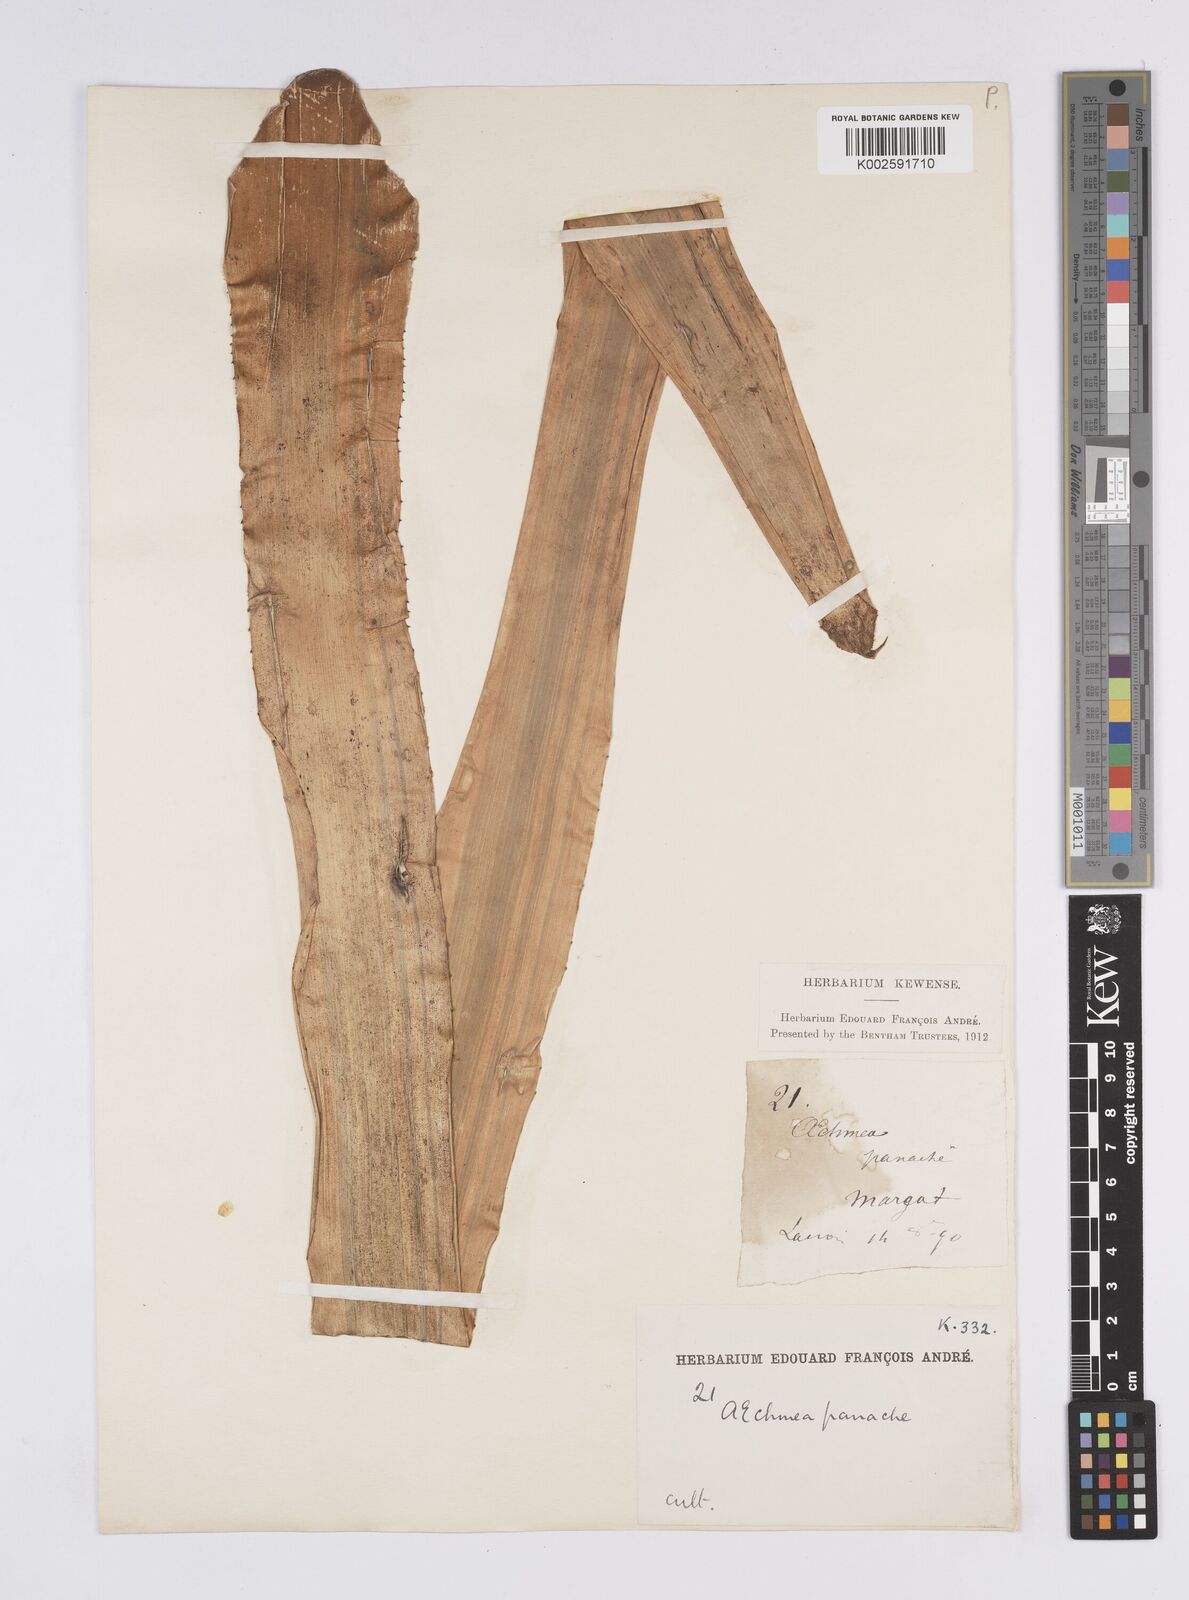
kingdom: Plantae
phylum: Tracheophyta
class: Liliopsida
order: Poales
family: Bromeliaceae
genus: Aechmea
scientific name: Aechmea
